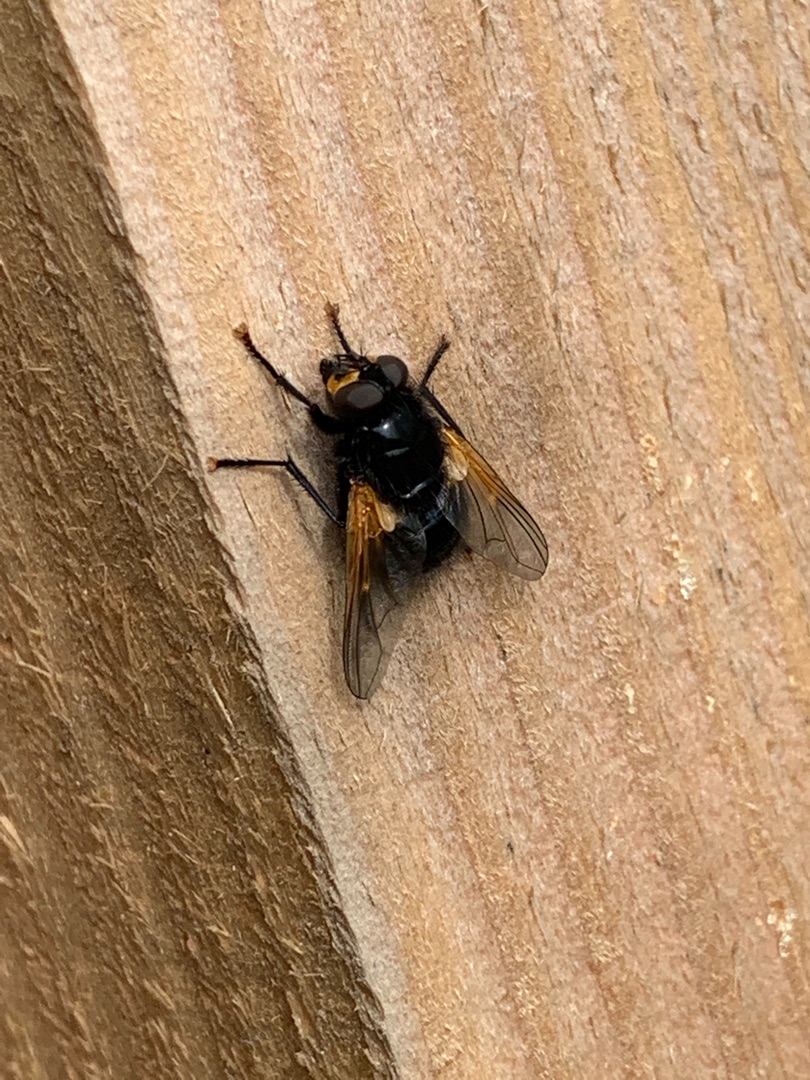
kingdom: Animalia
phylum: Arthropoda
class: Insecta
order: Diptera
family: Muscidae
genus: Mesembrina
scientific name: Mesembrina meridiana
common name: Gulvinget flue
